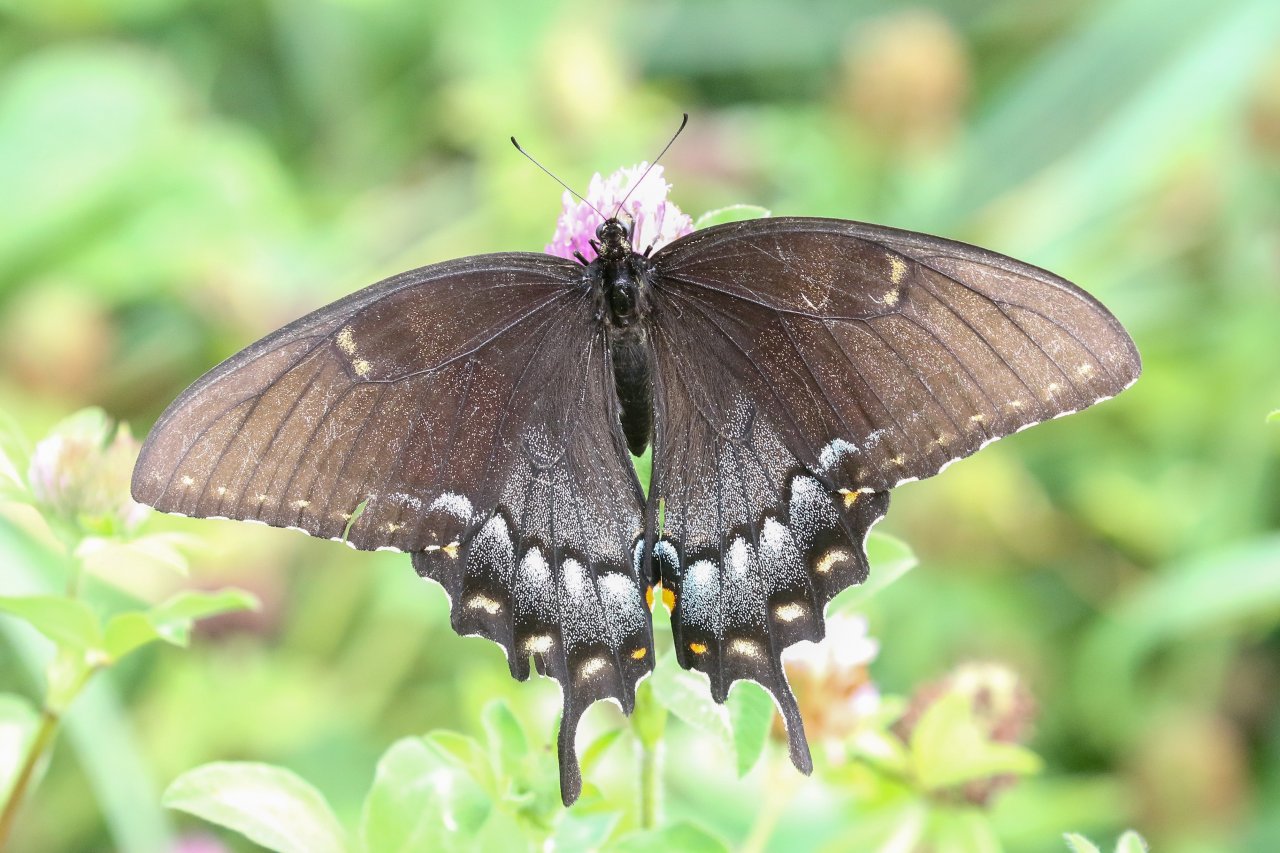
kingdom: Animalia
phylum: Arthropoda
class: Insecta
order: Lepidoptera
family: Papilionidae
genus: Pterourus
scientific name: Pterourus glaucus
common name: Eastern Tiger Swallowtail
